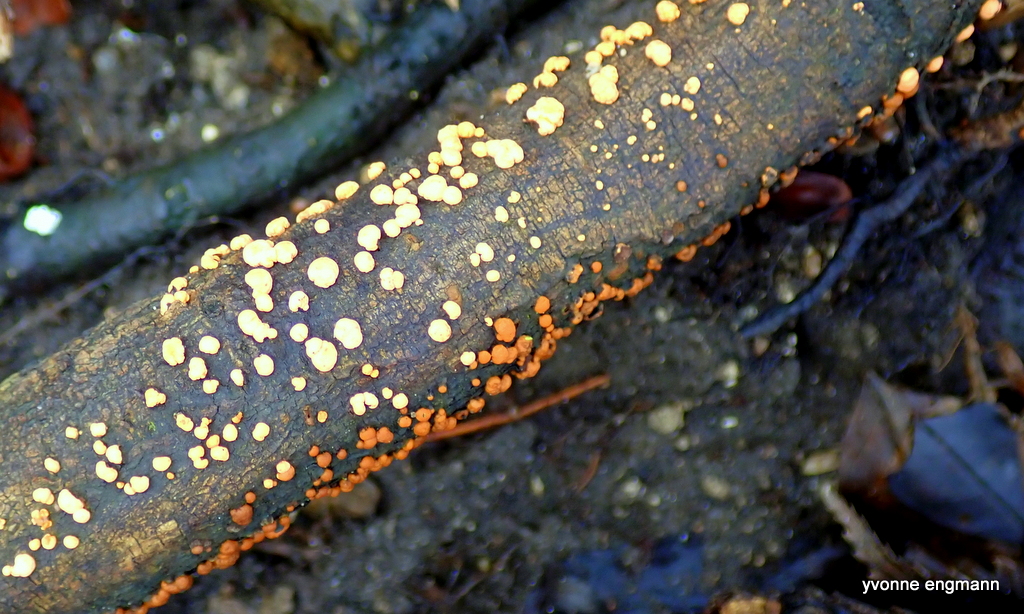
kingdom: Fungi
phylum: Ascomycota
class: Sordariomycetes
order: Hypocreales
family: Nectriaceae
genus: Nectria
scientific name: Nectria cinnabarina
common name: almindelig cinnobersvamp
